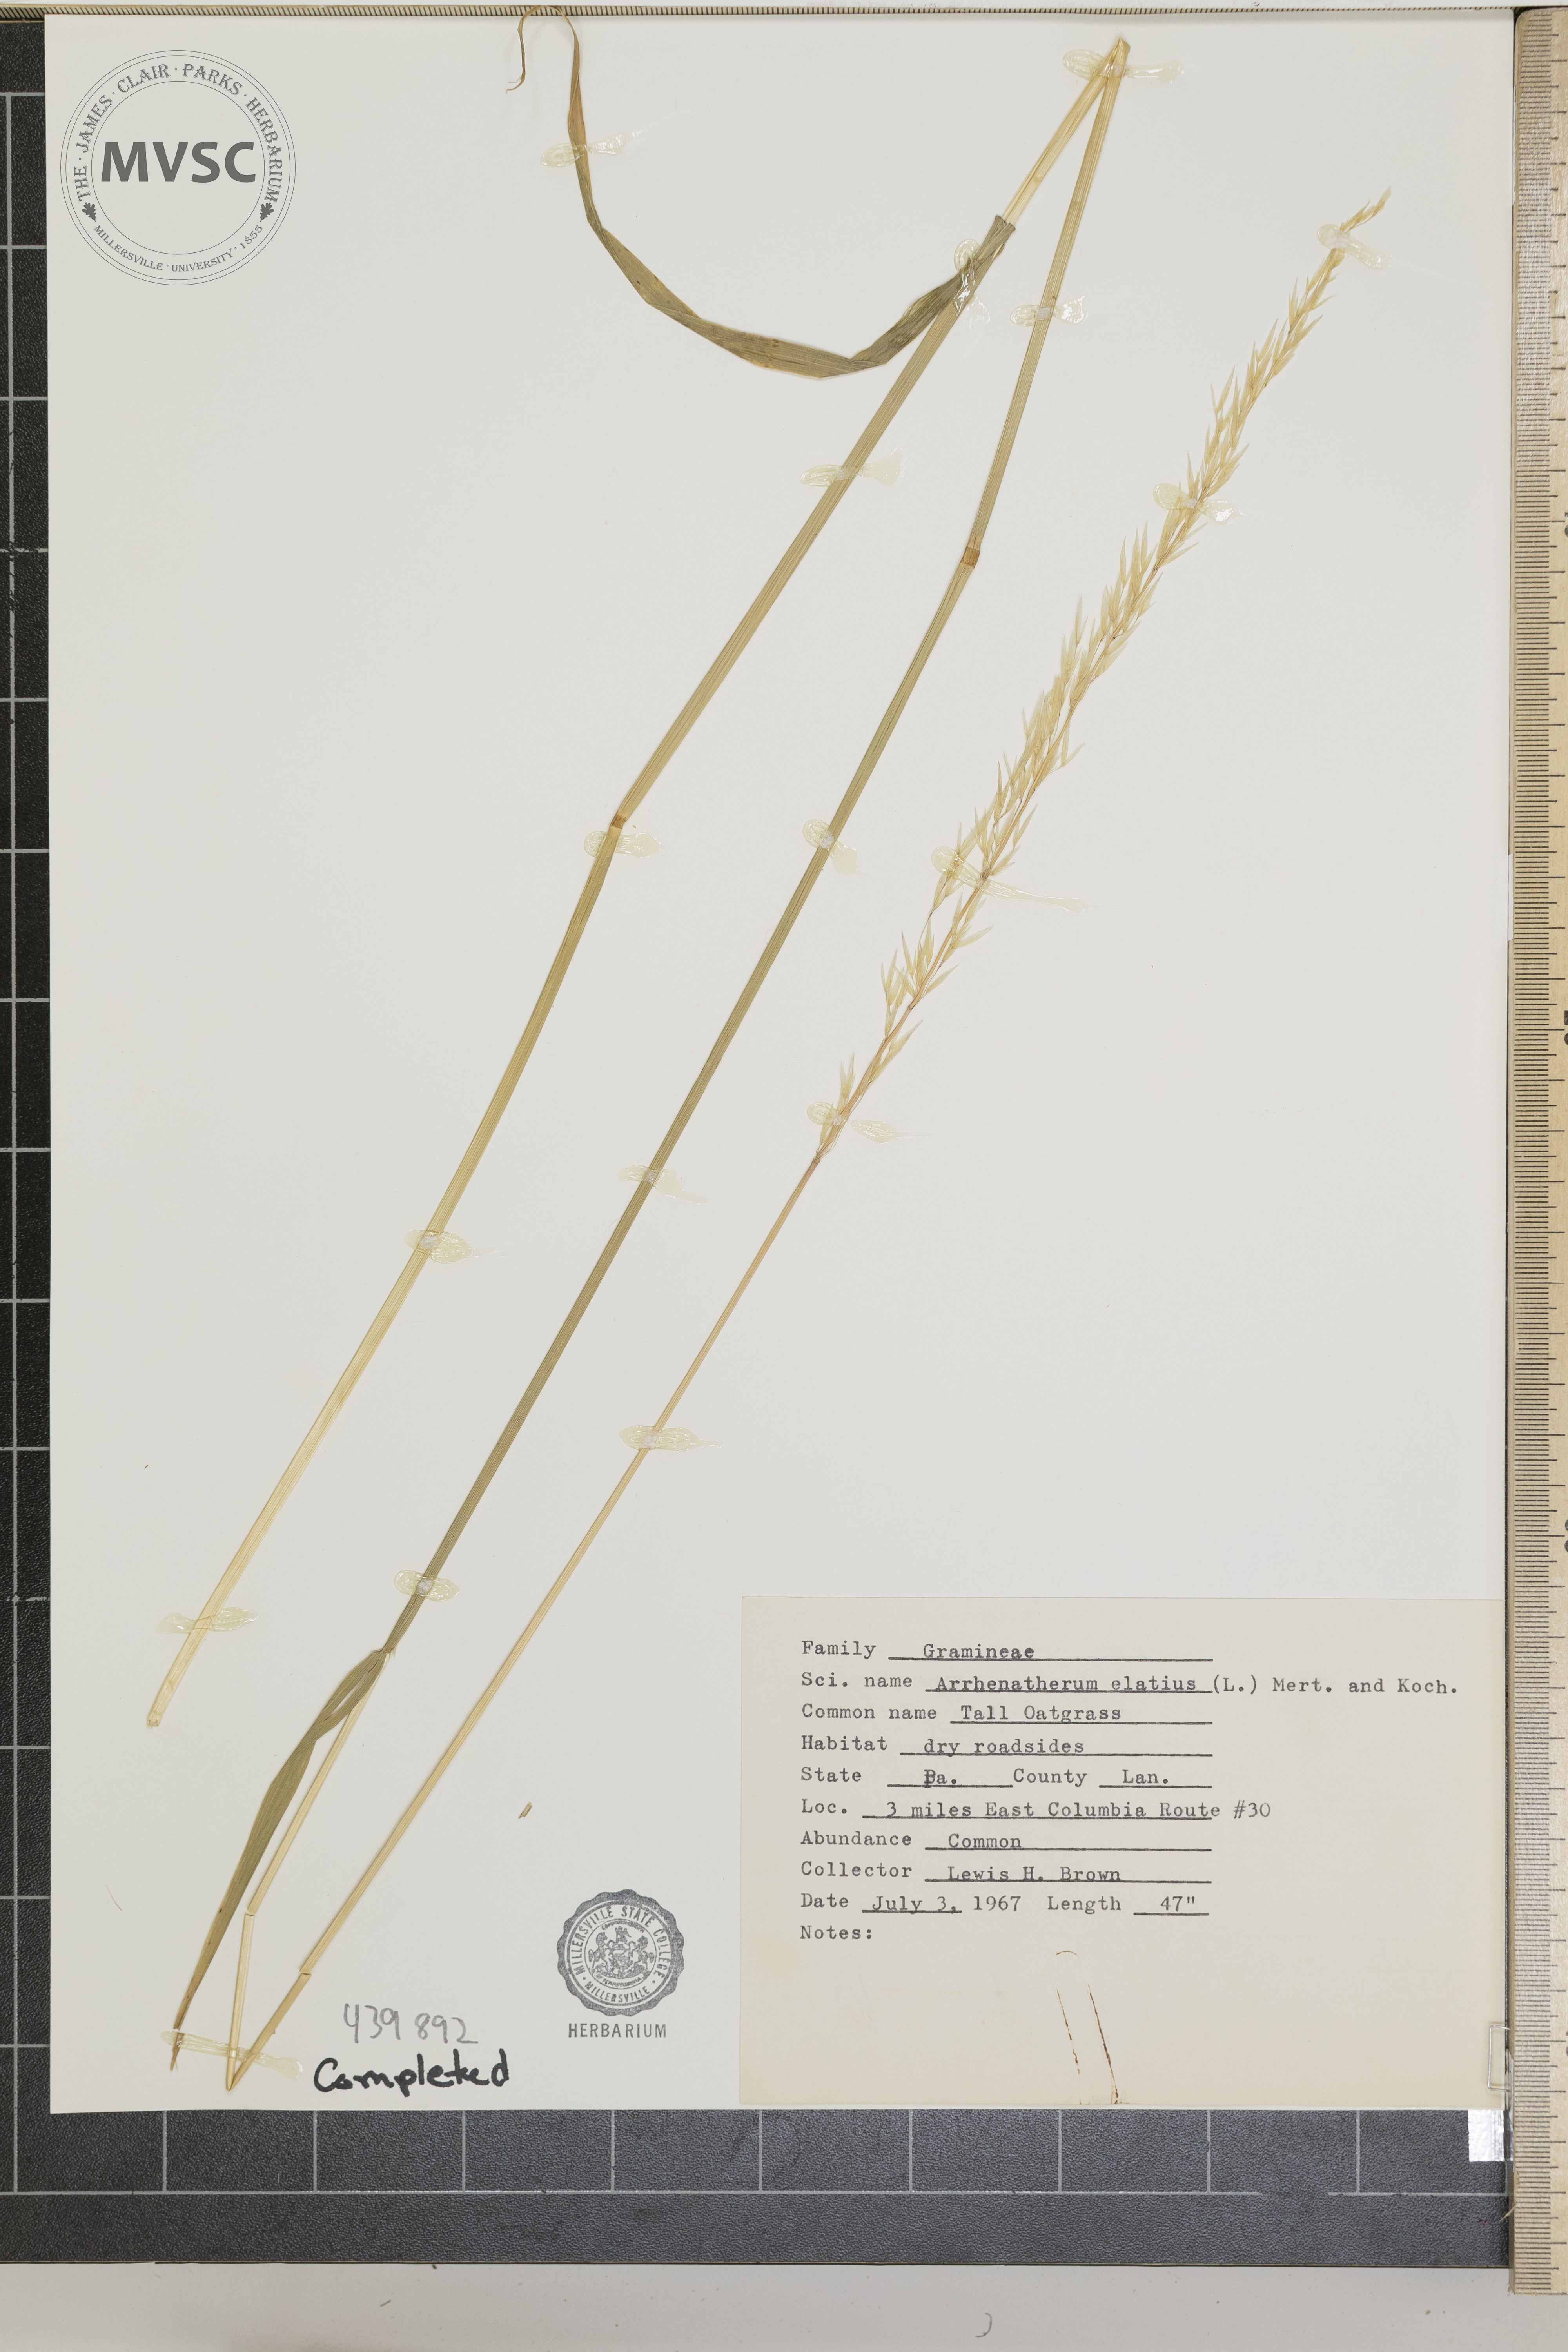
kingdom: Plantae
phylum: Tracheophyta
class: Liliopsida
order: Poales
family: Poaceae
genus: Arrhenatherum
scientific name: Arrhenatherum elatius
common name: Tall oatgrass
